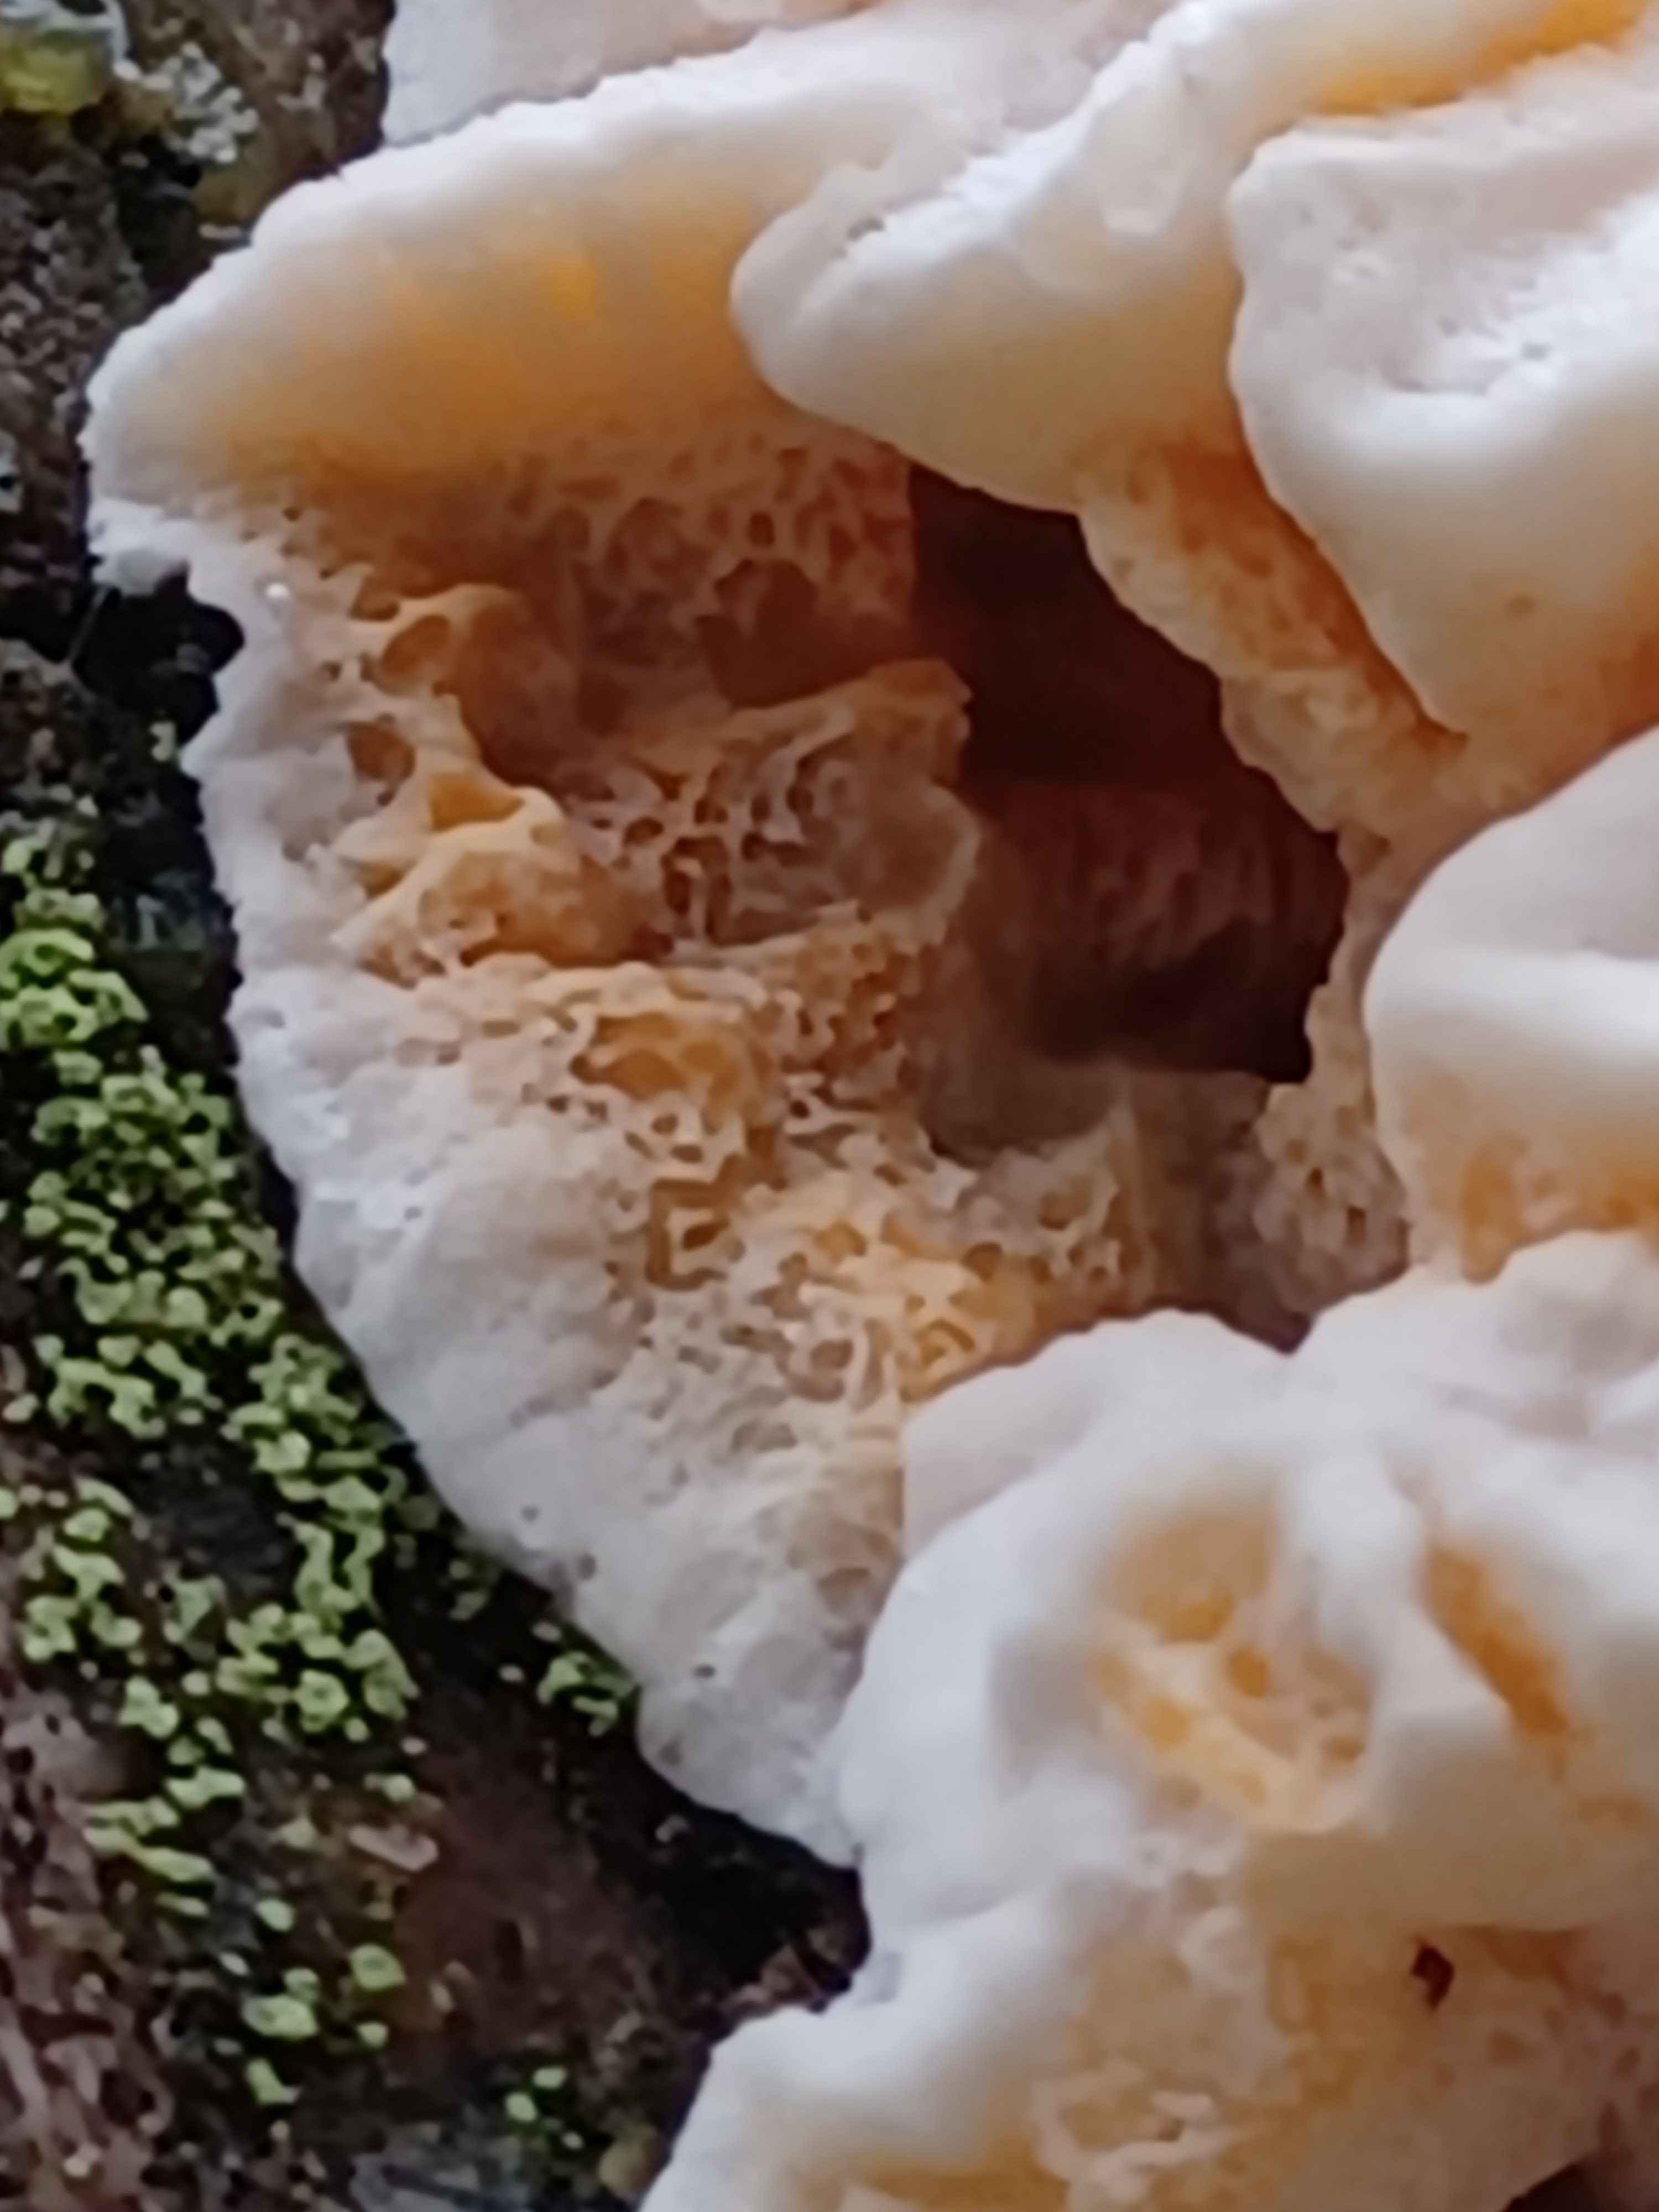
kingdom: Fungi
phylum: Basidiomycota
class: Agaricomycetes
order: Polyporales
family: Incrustoporiaceae
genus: Skeletocutis
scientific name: Skeletocutis amorpha
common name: orange krystalporesvamp
